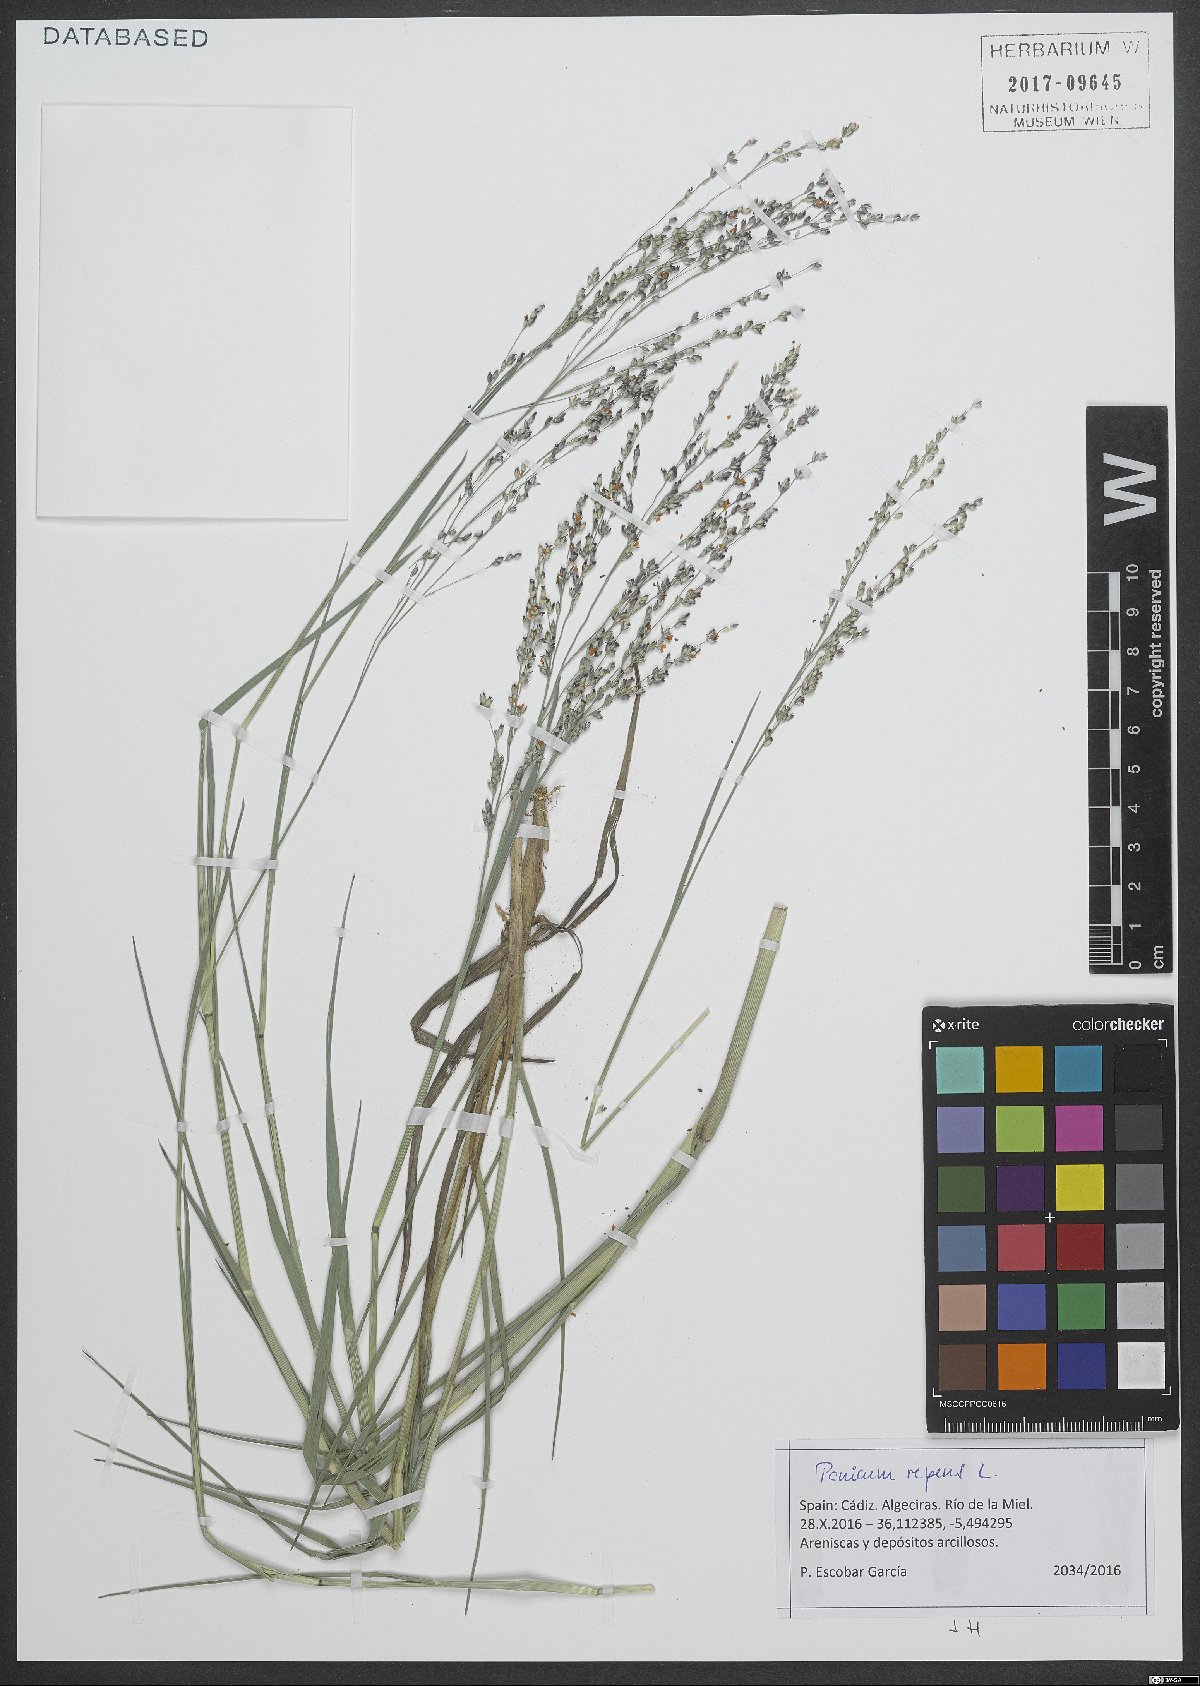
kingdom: Plantae
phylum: Tracheophyta
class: Liliopsida
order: Poales
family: Poaceae
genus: Panicum
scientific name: Panicum repens
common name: Torpedo grass
